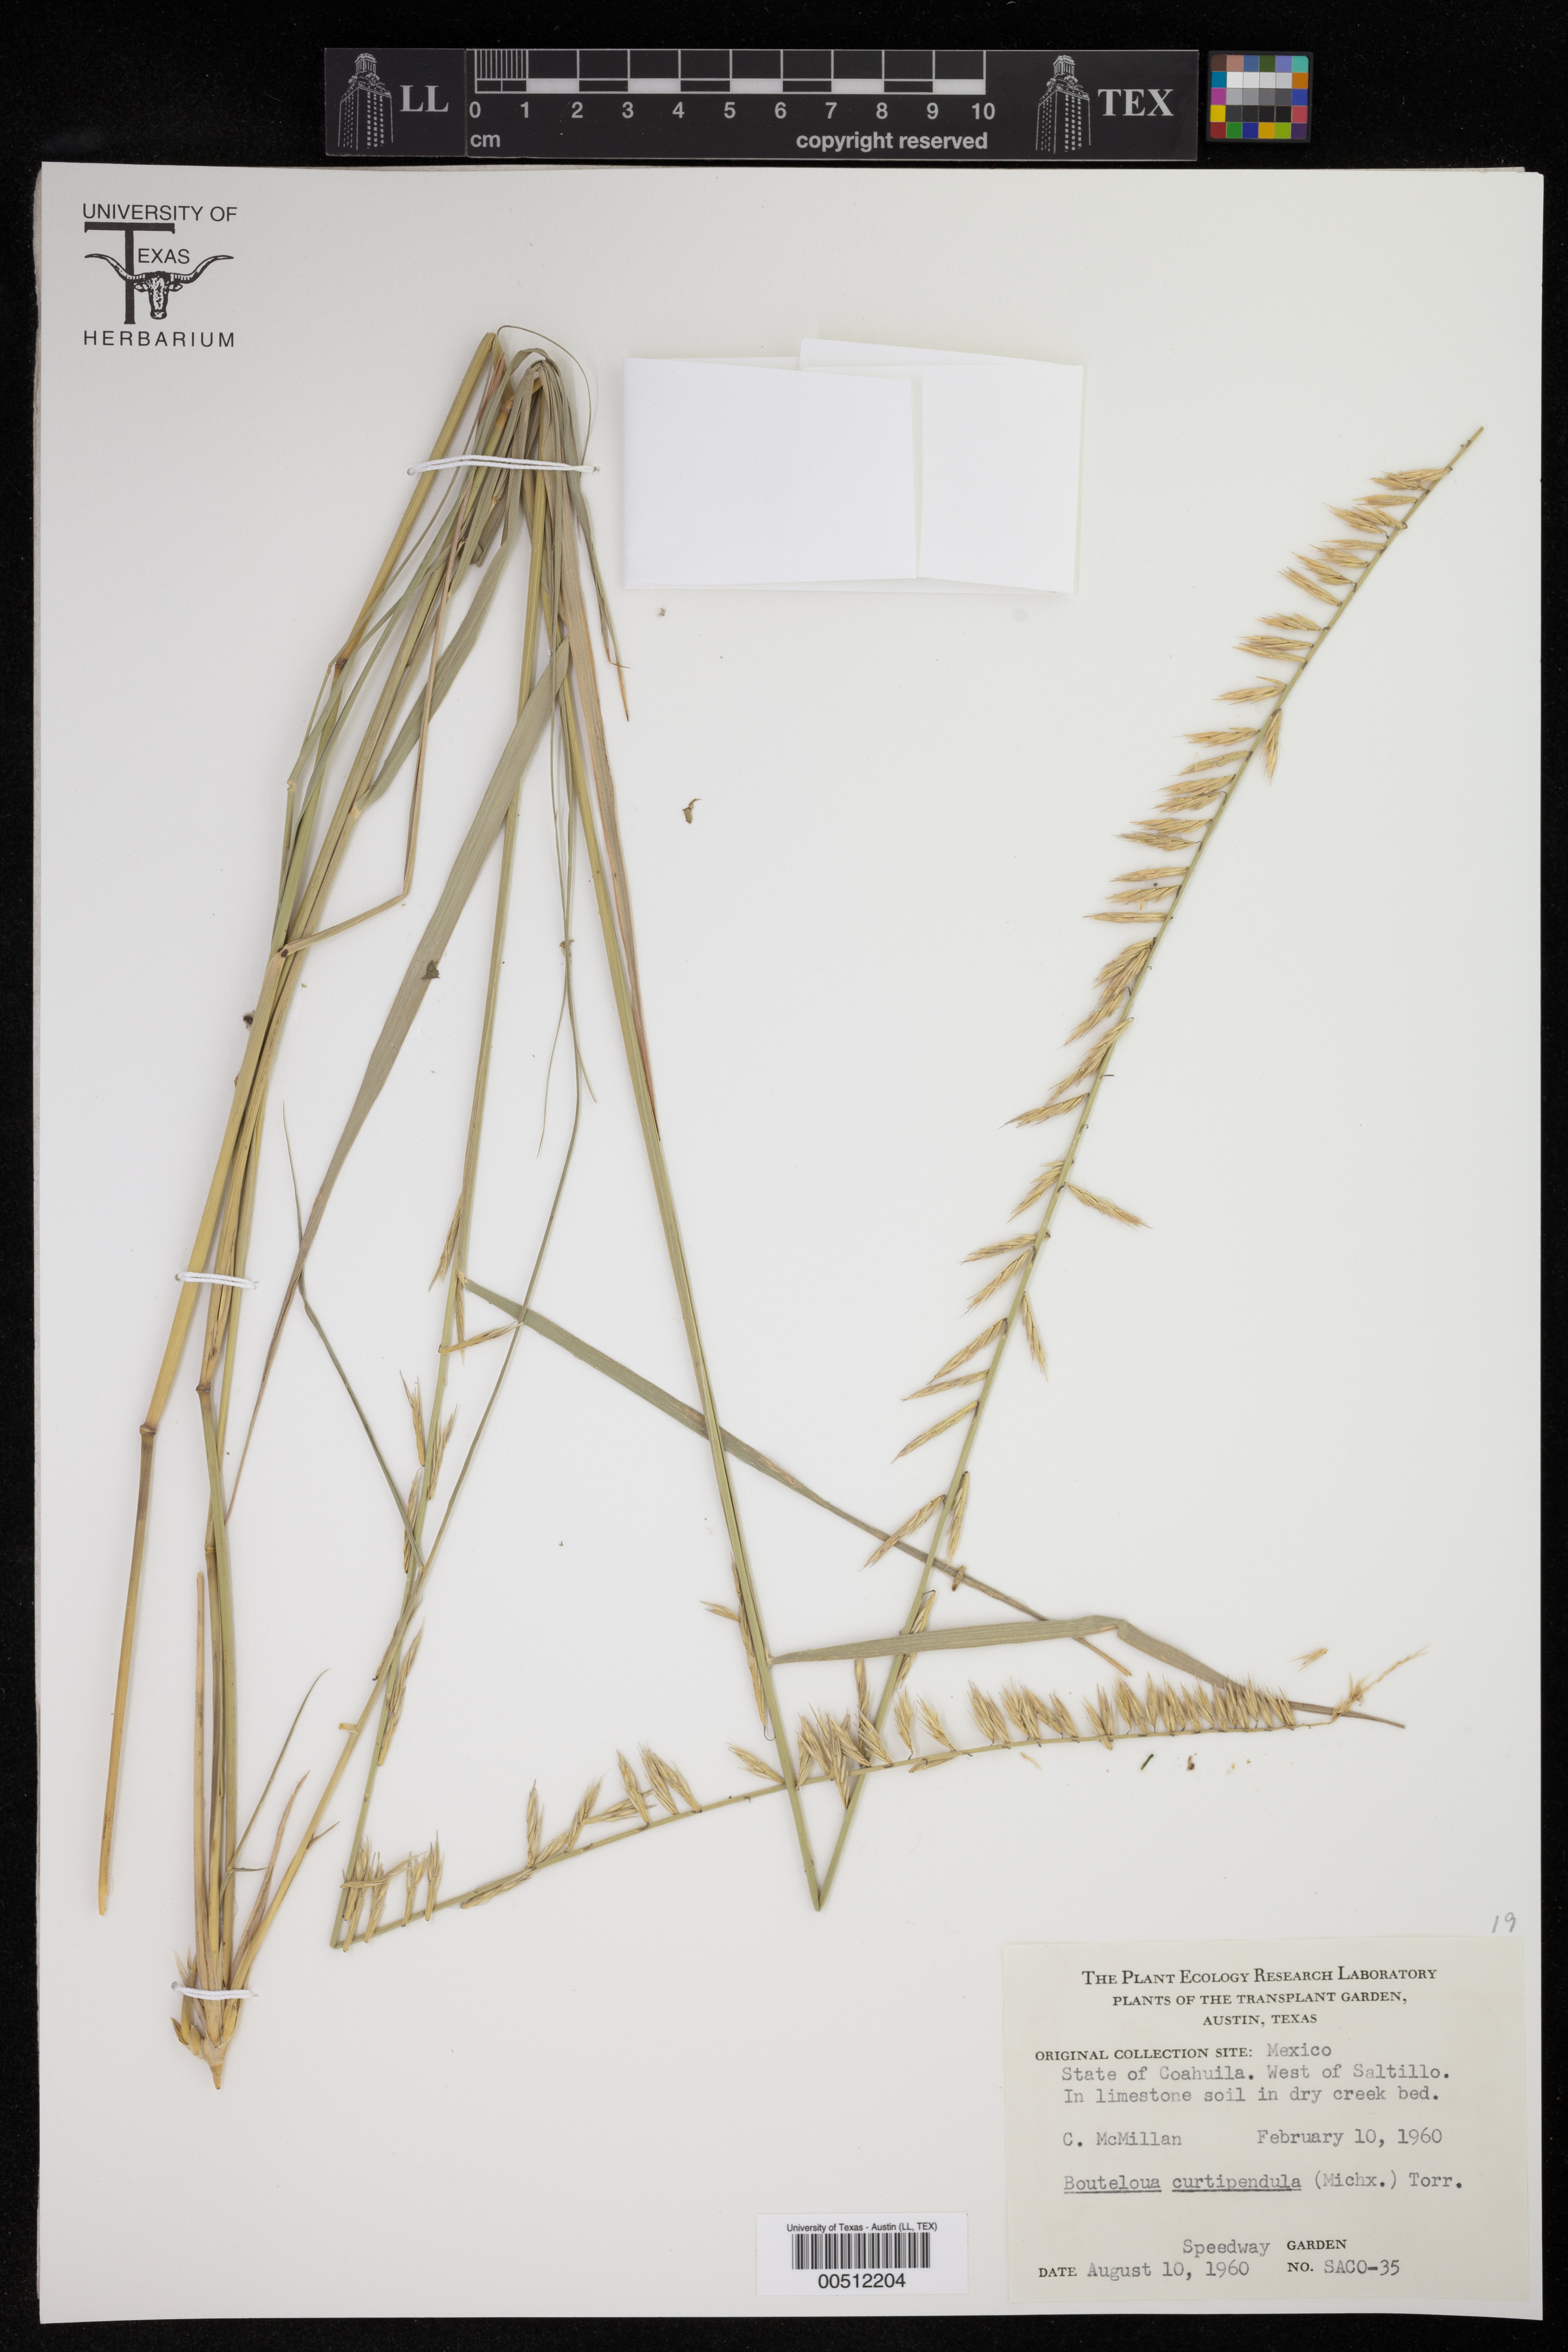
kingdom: Plantae
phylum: Tracheophyta
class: Liliopsida
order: Poales
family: Poaceae
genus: Bouteloua
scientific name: Bouteloua curtipendula
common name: Side-oats grama
